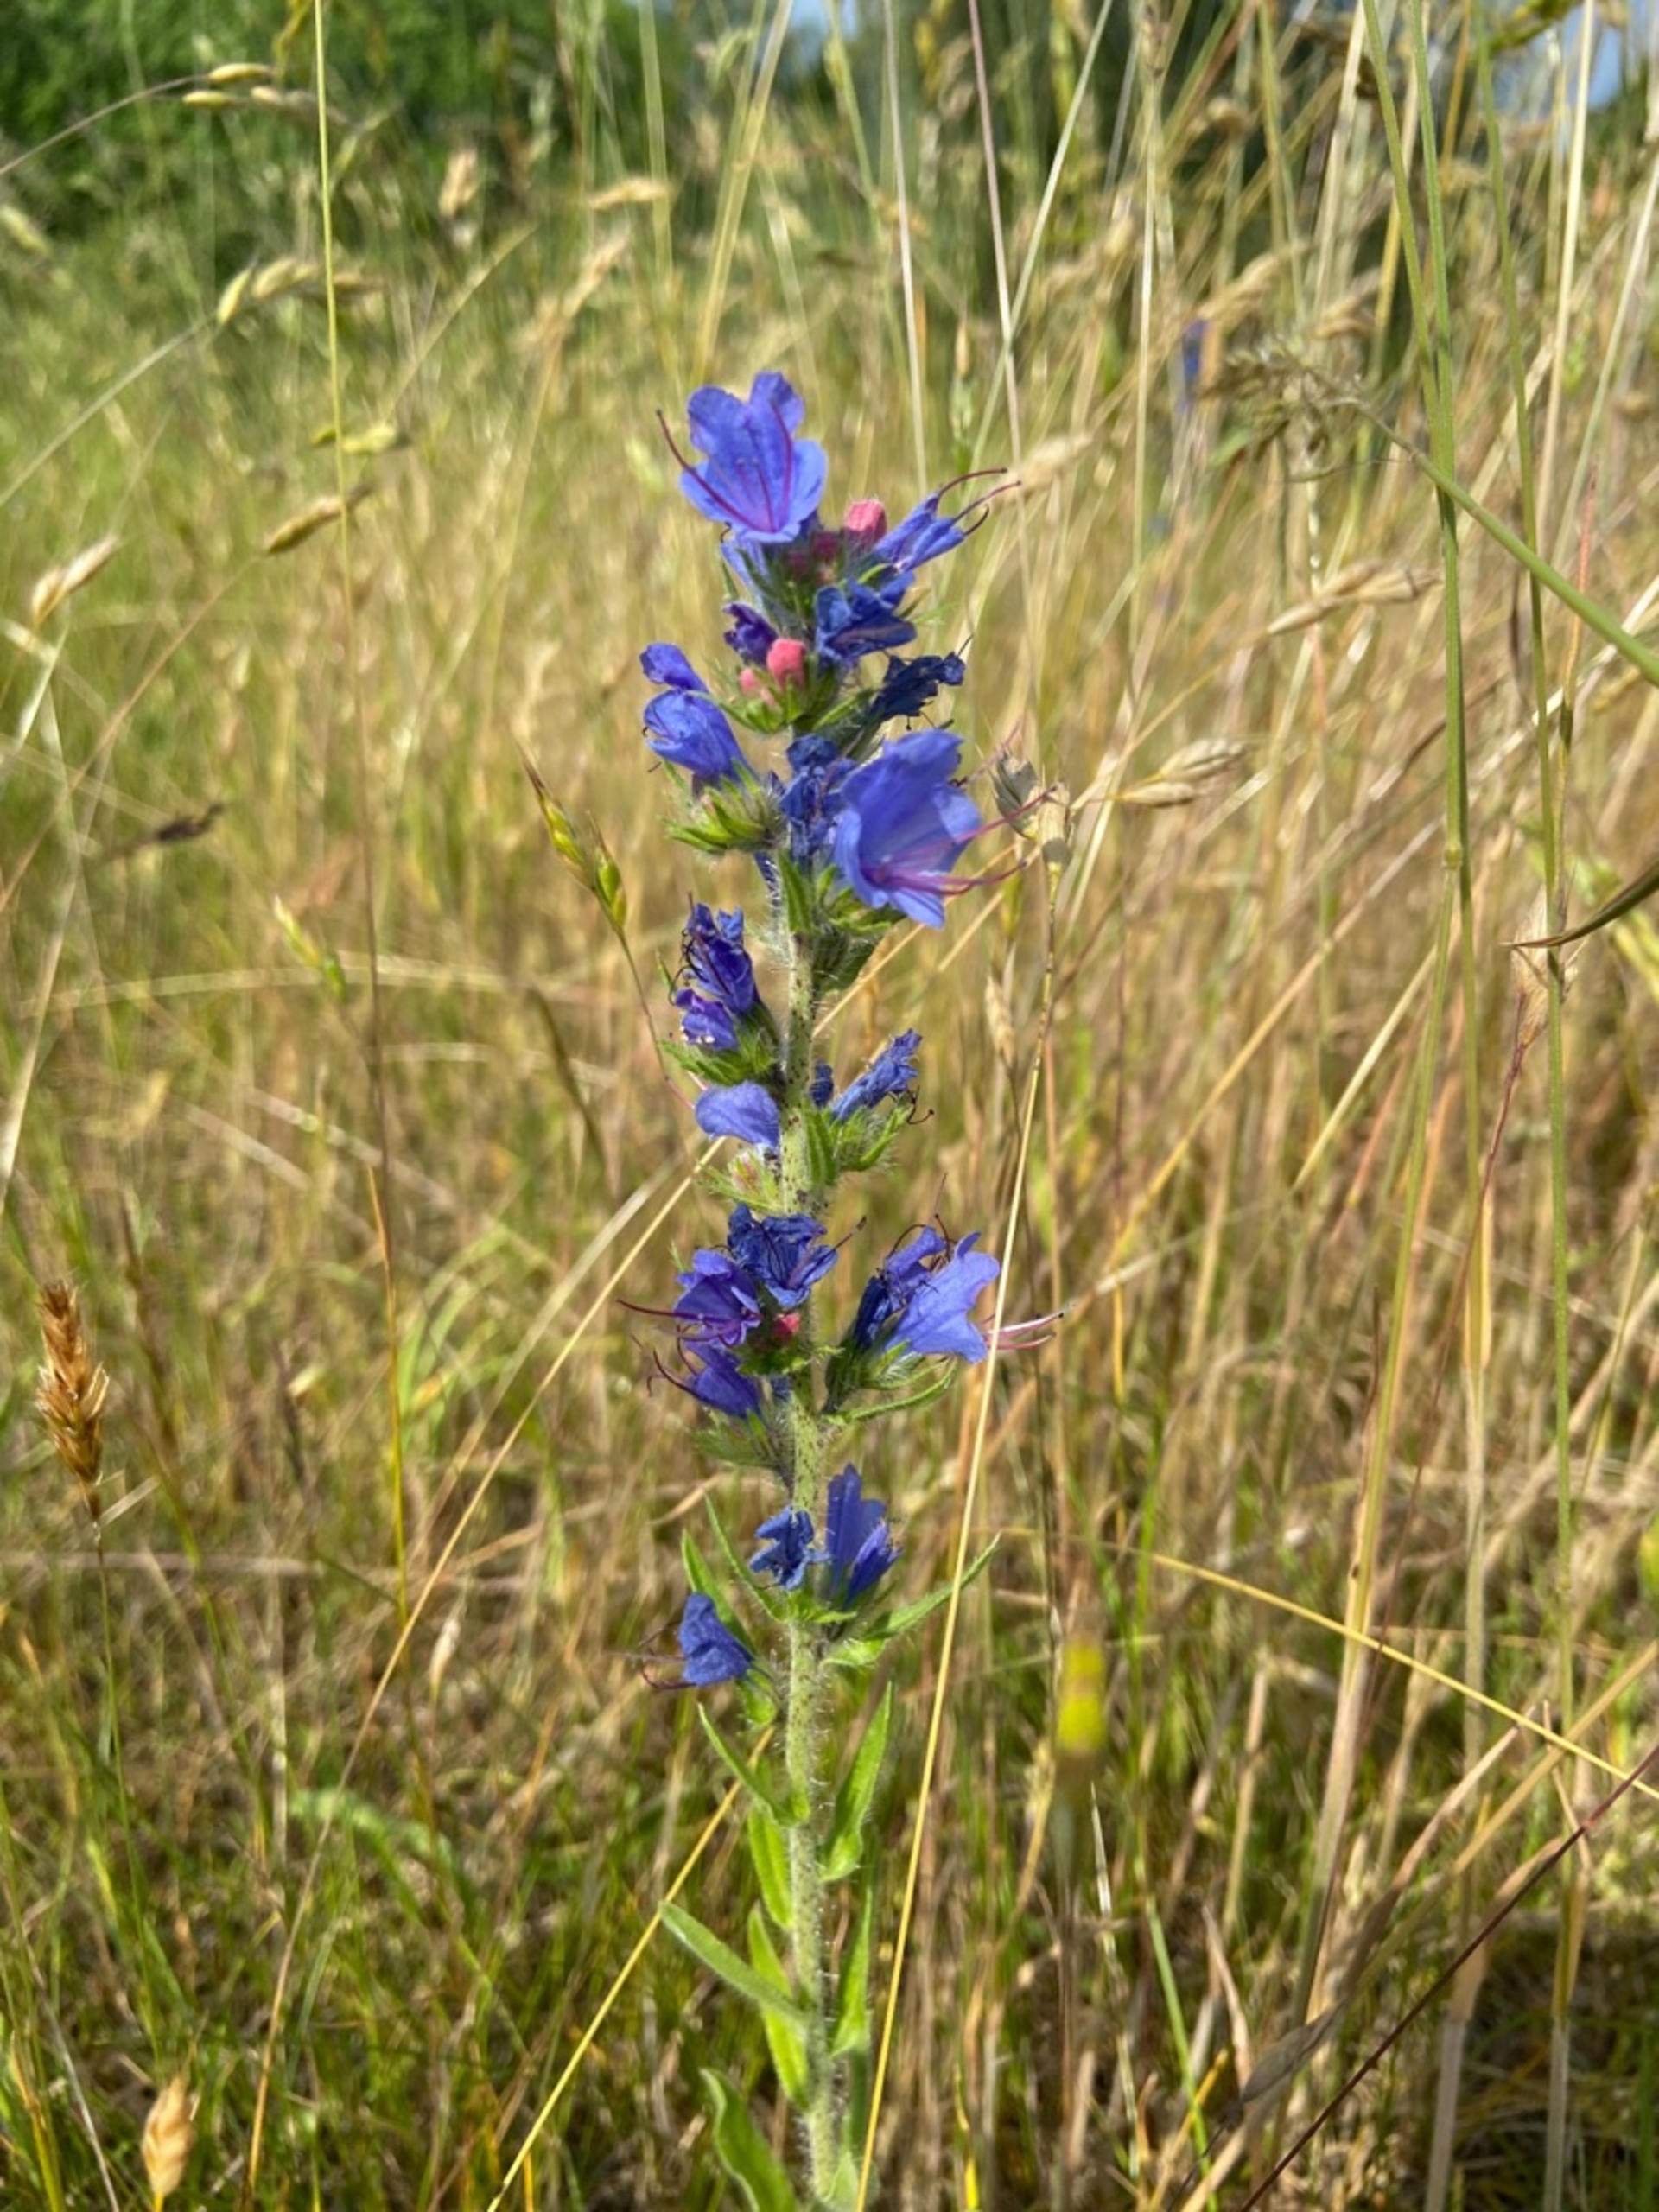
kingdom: Plantae
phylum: Tracheophyta
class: Magnoliopsida
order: Boraginales
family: Boraginaceae
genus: Echium
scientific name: Echium vulgare
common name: Slangehoved
